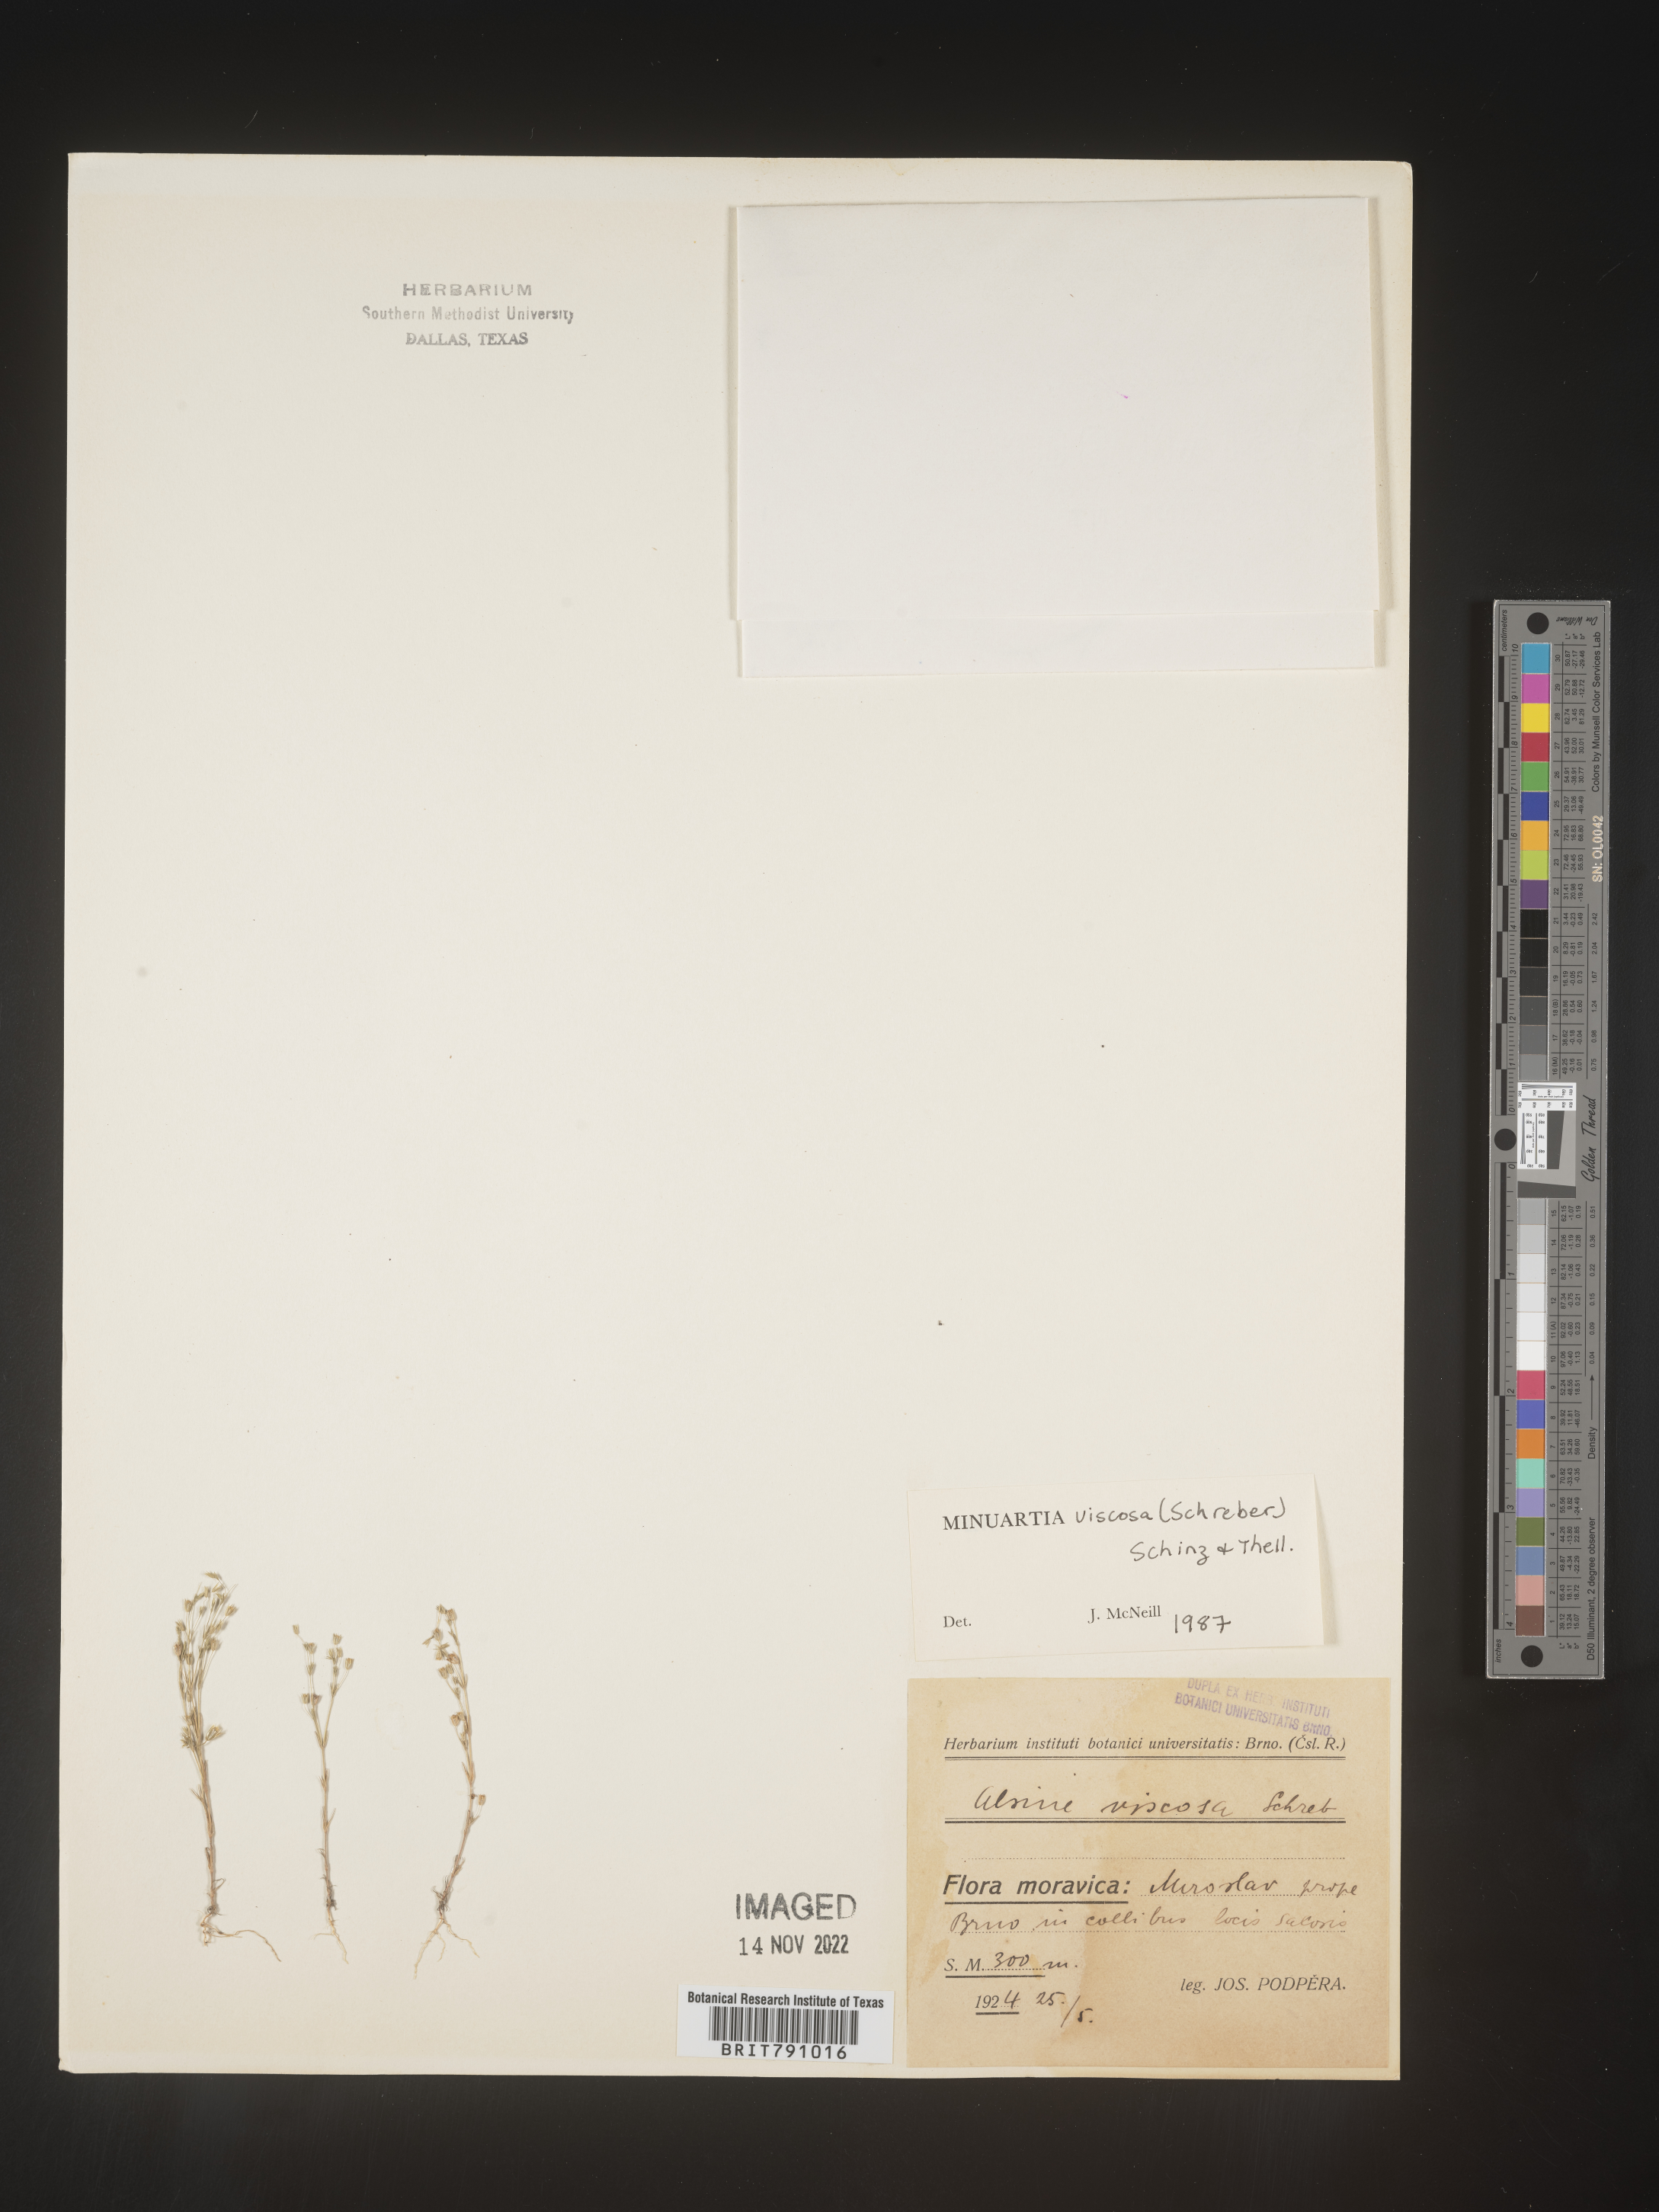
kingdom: Plantae
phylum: Tracheophyta
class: Magnoliopsida
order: Caryophyllales
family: Caryophyllaceae
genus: Minuartia
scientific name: Minuartia
